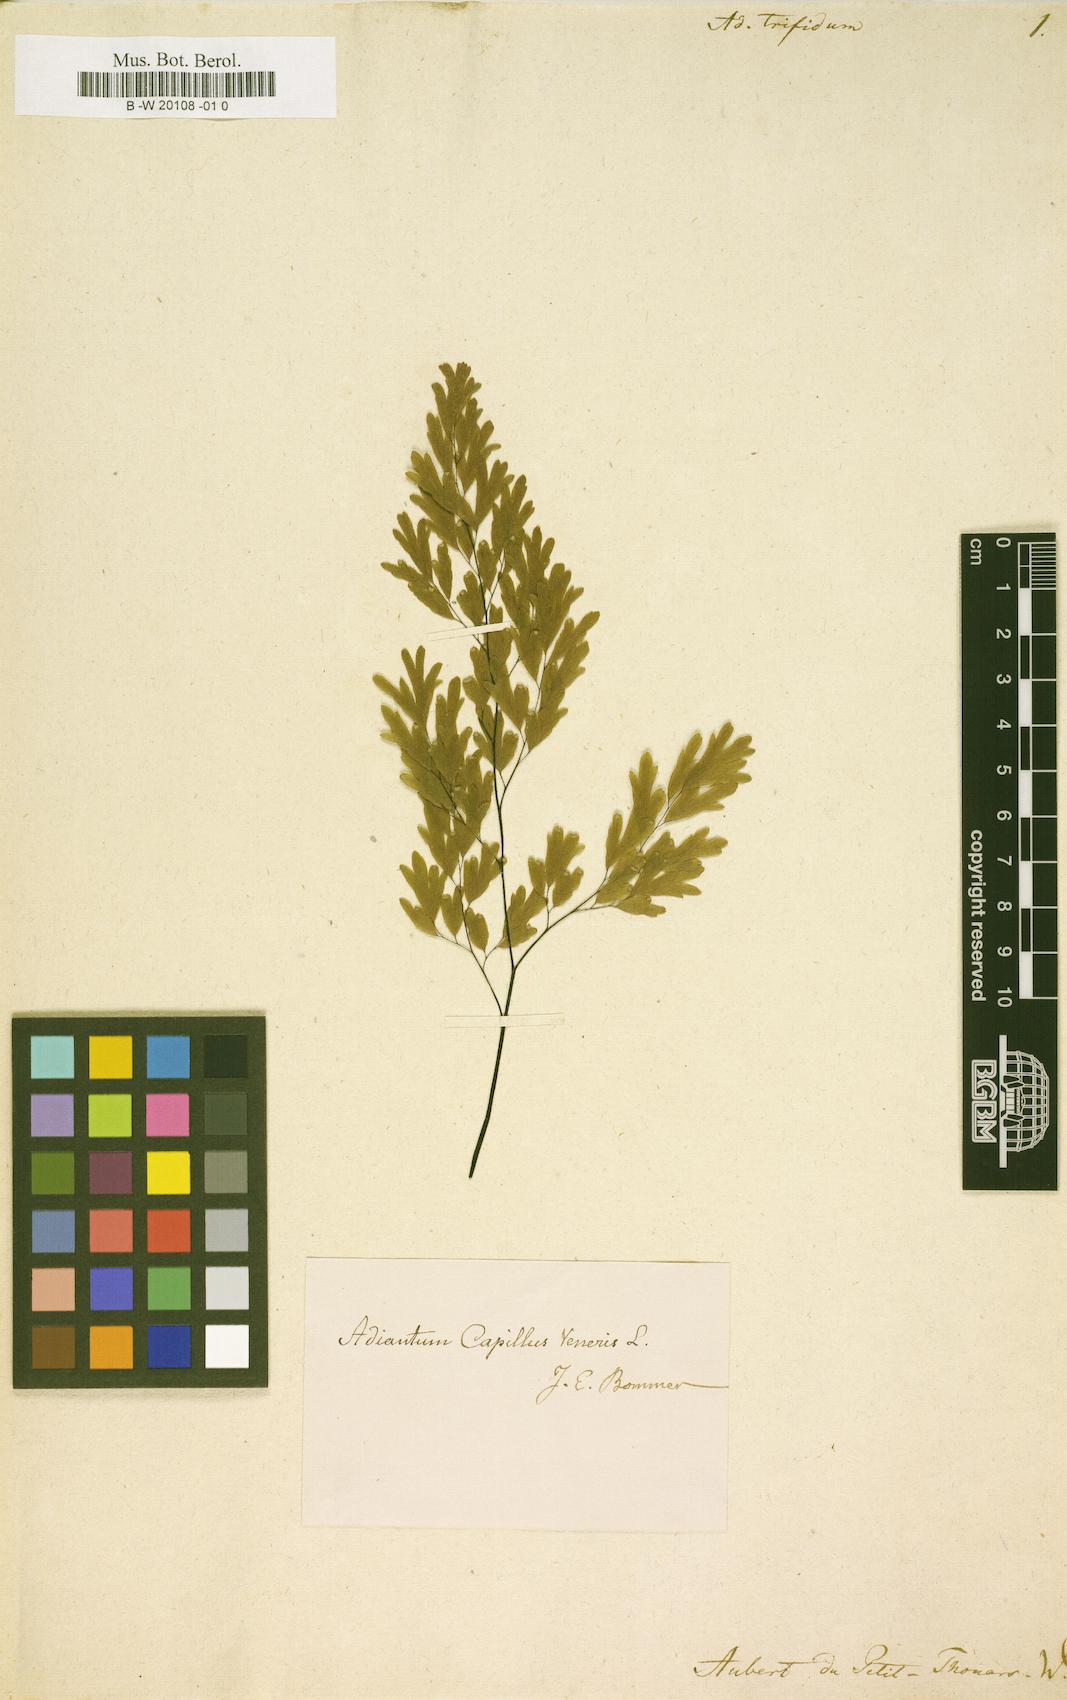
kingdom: Plantae
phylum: Tracheophyta
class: Polypodiopsida
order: Polypodiales
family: Pteridaceae
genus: Adiantum
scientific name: Adiantum capillus-veneris
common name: Maidenhair fern
